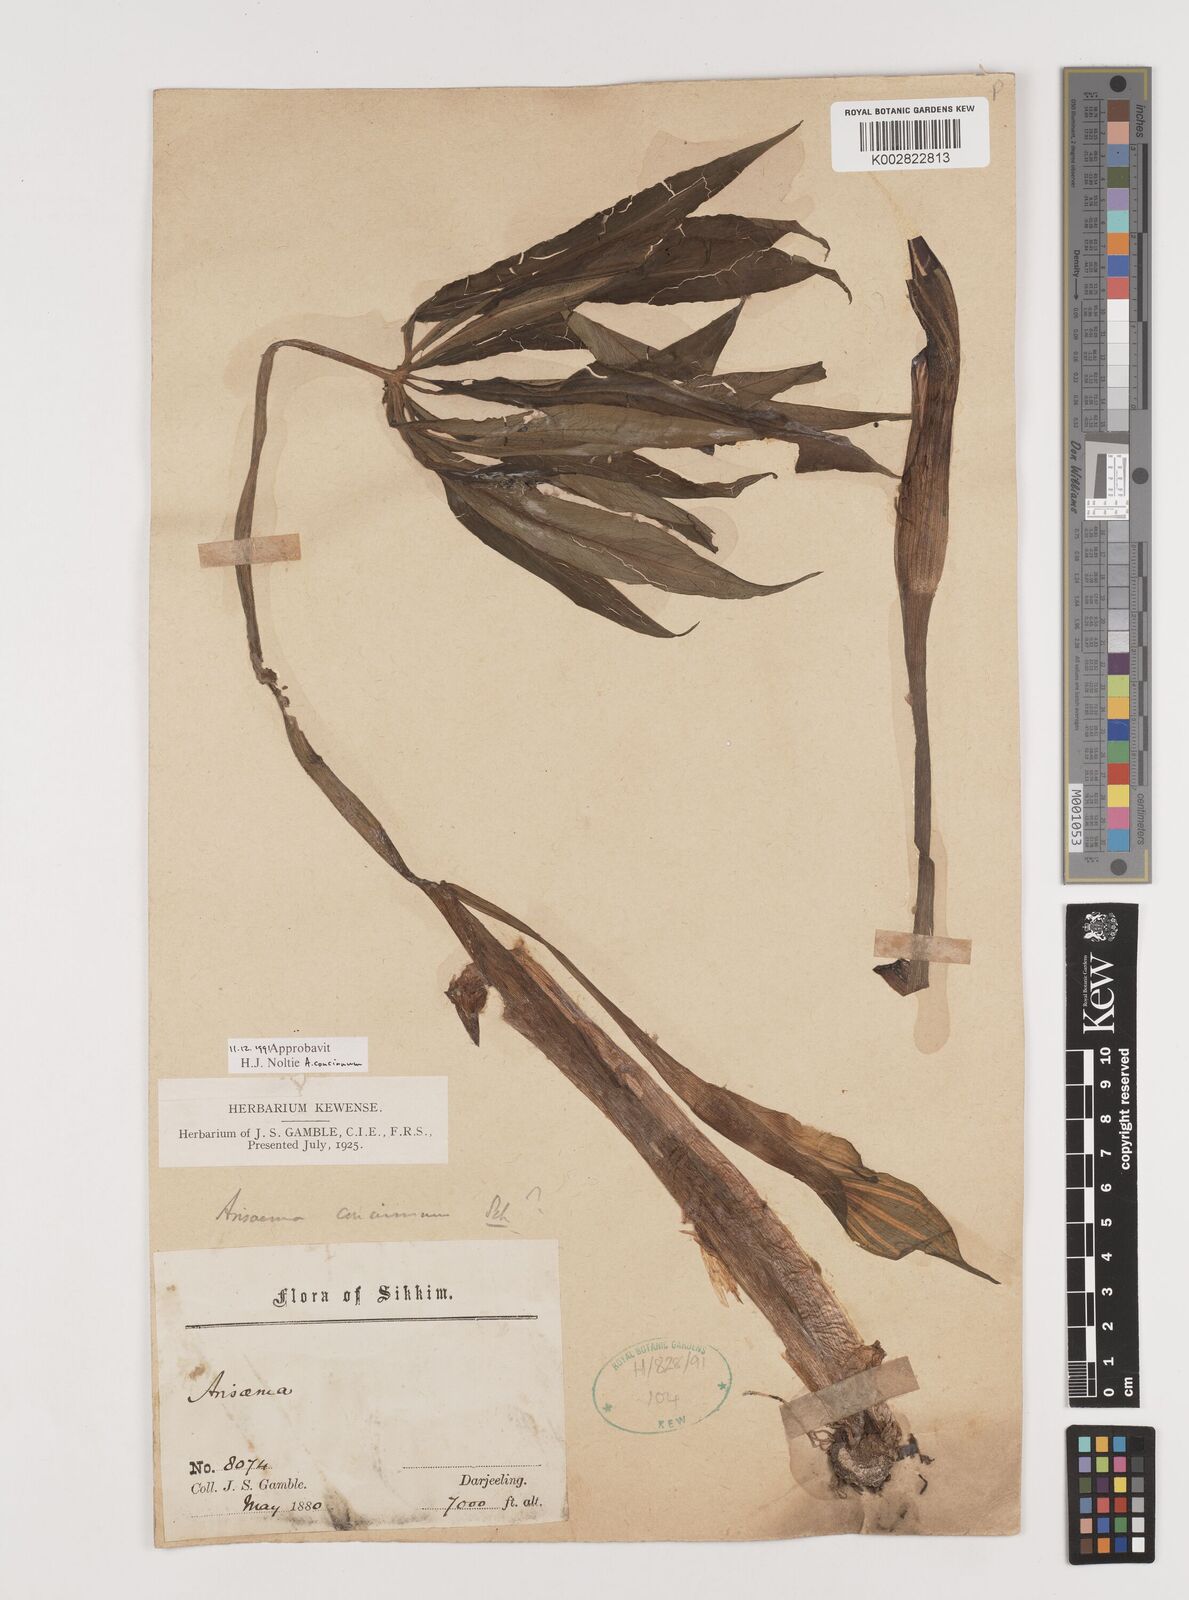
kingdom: Plantae
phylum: Tracheophyta
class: Liliopsida
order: Alismatales
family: Araceae
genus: Arisaema
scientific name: Arisaema concinnum
